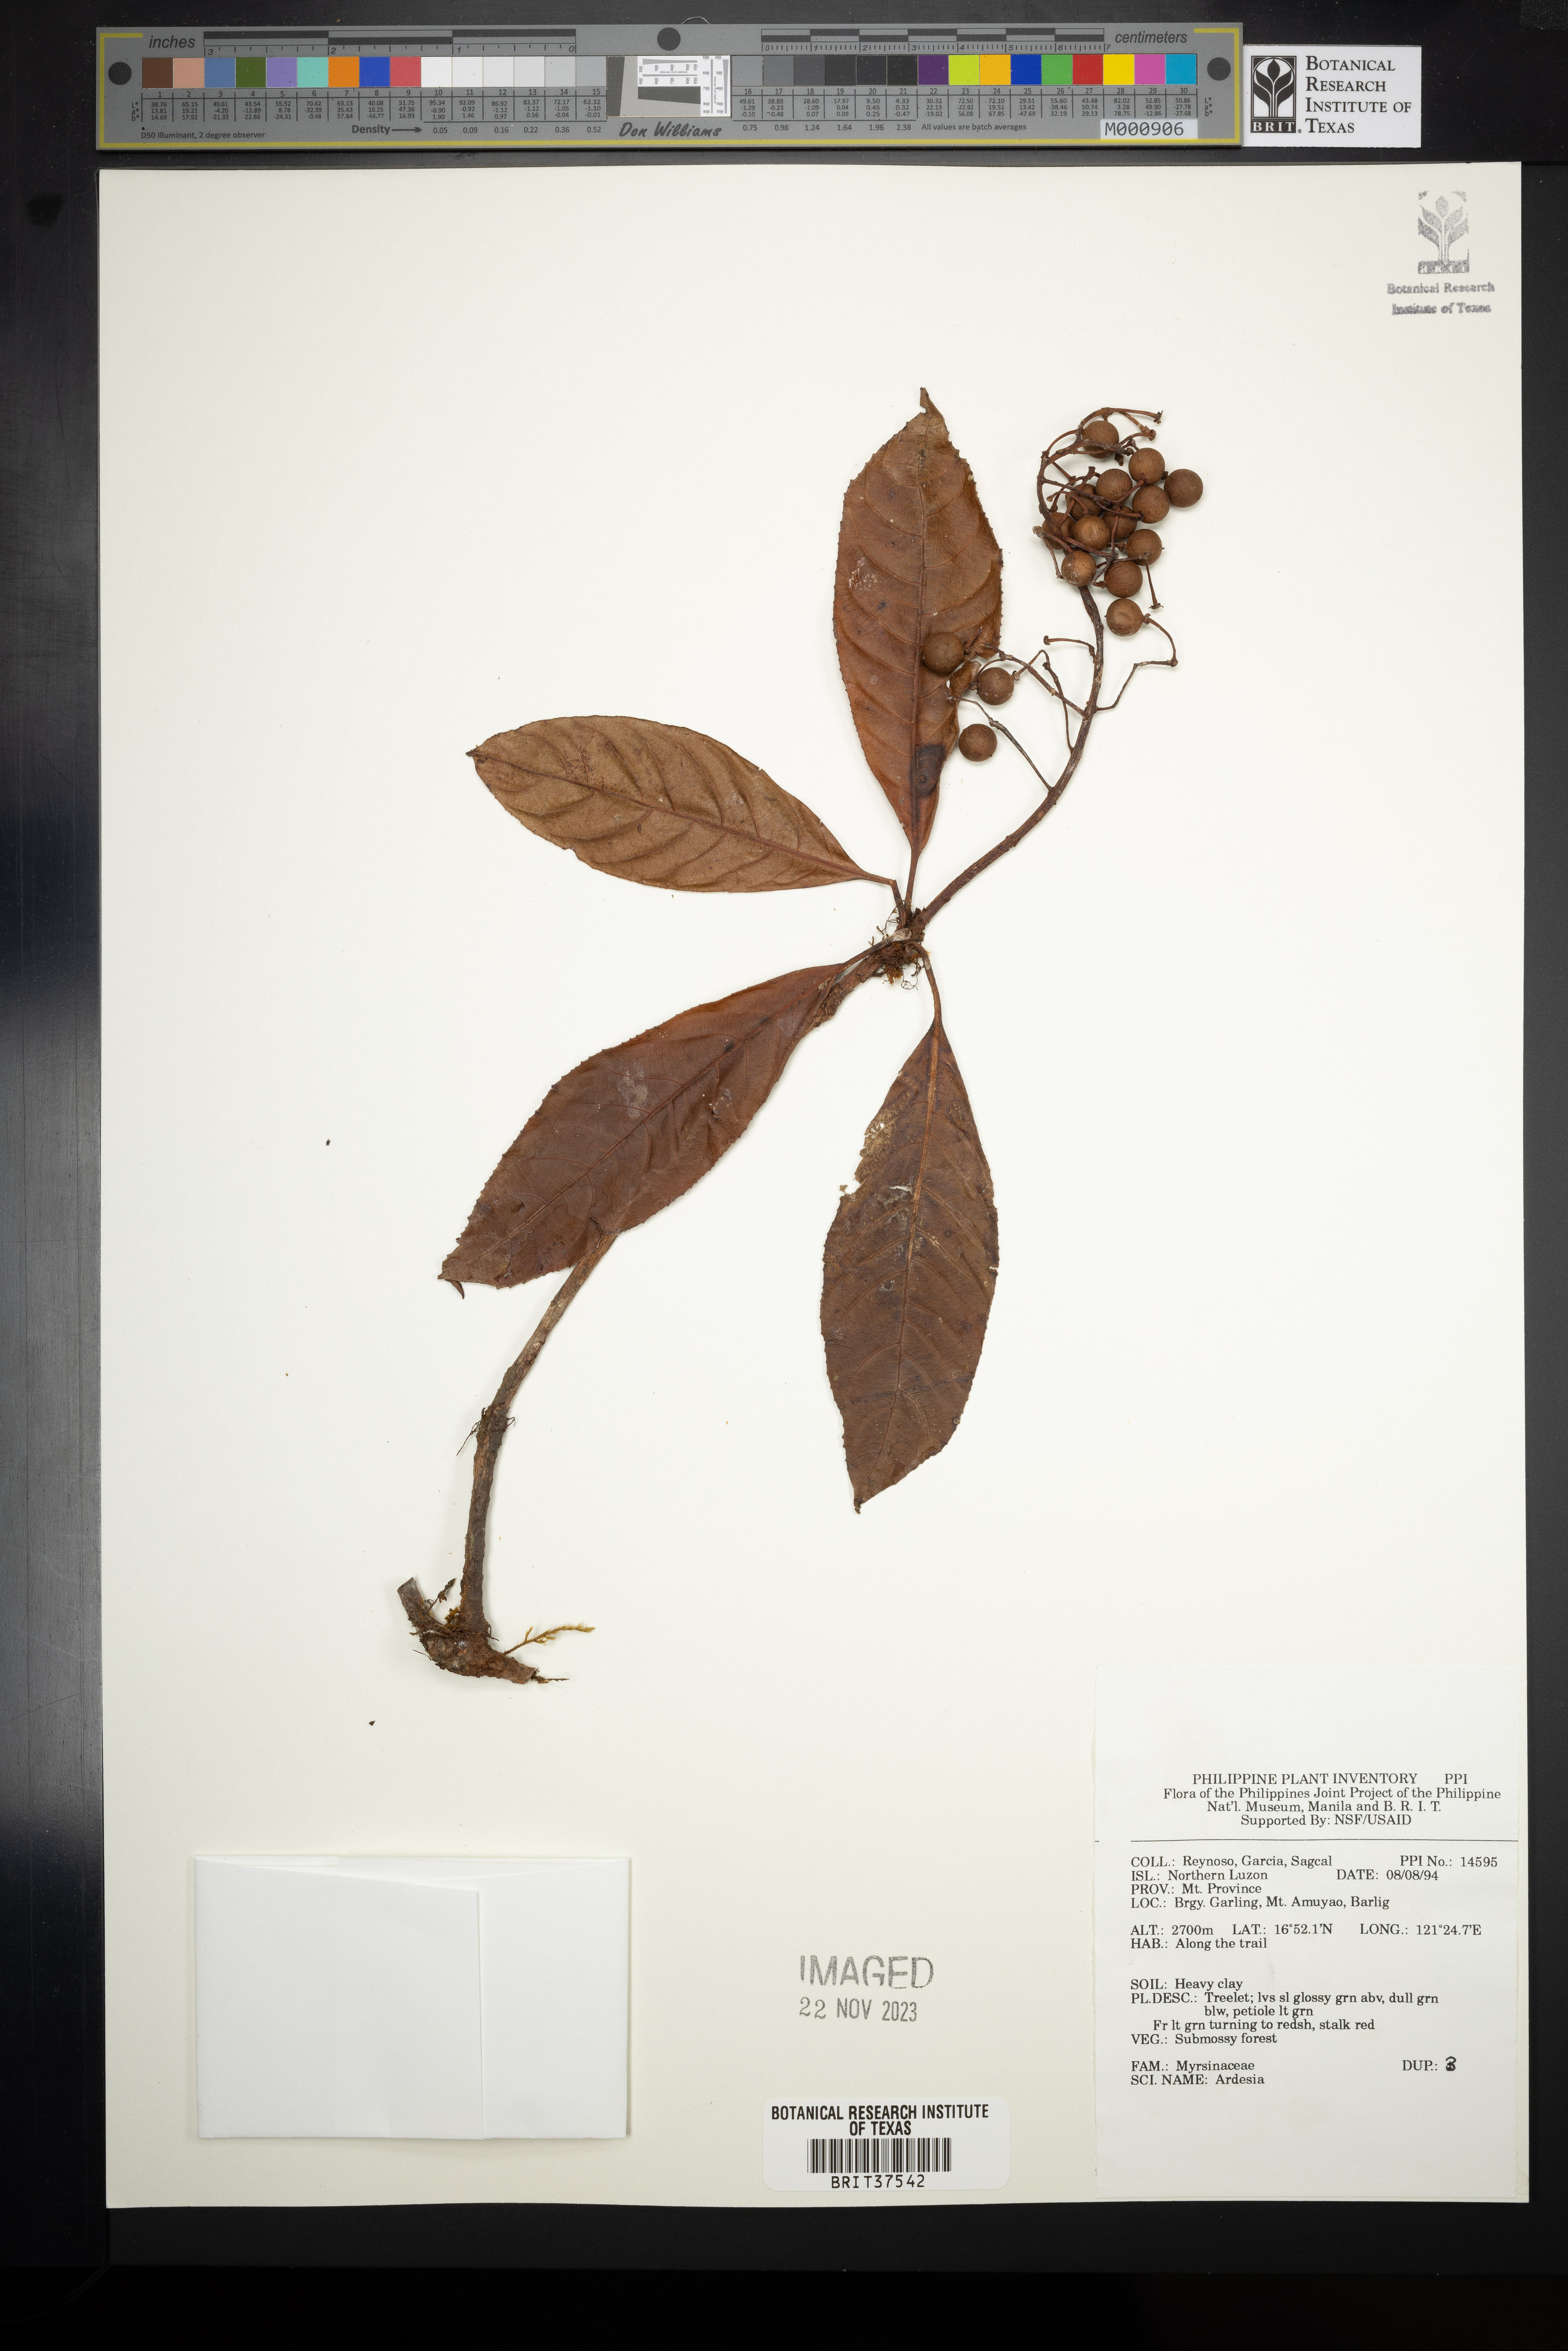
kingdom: Plantae
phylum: Tracheophyta
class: Magnoliopsida
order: Ericales
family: Primulaceae
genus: Ardisia
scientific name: Ardisia
